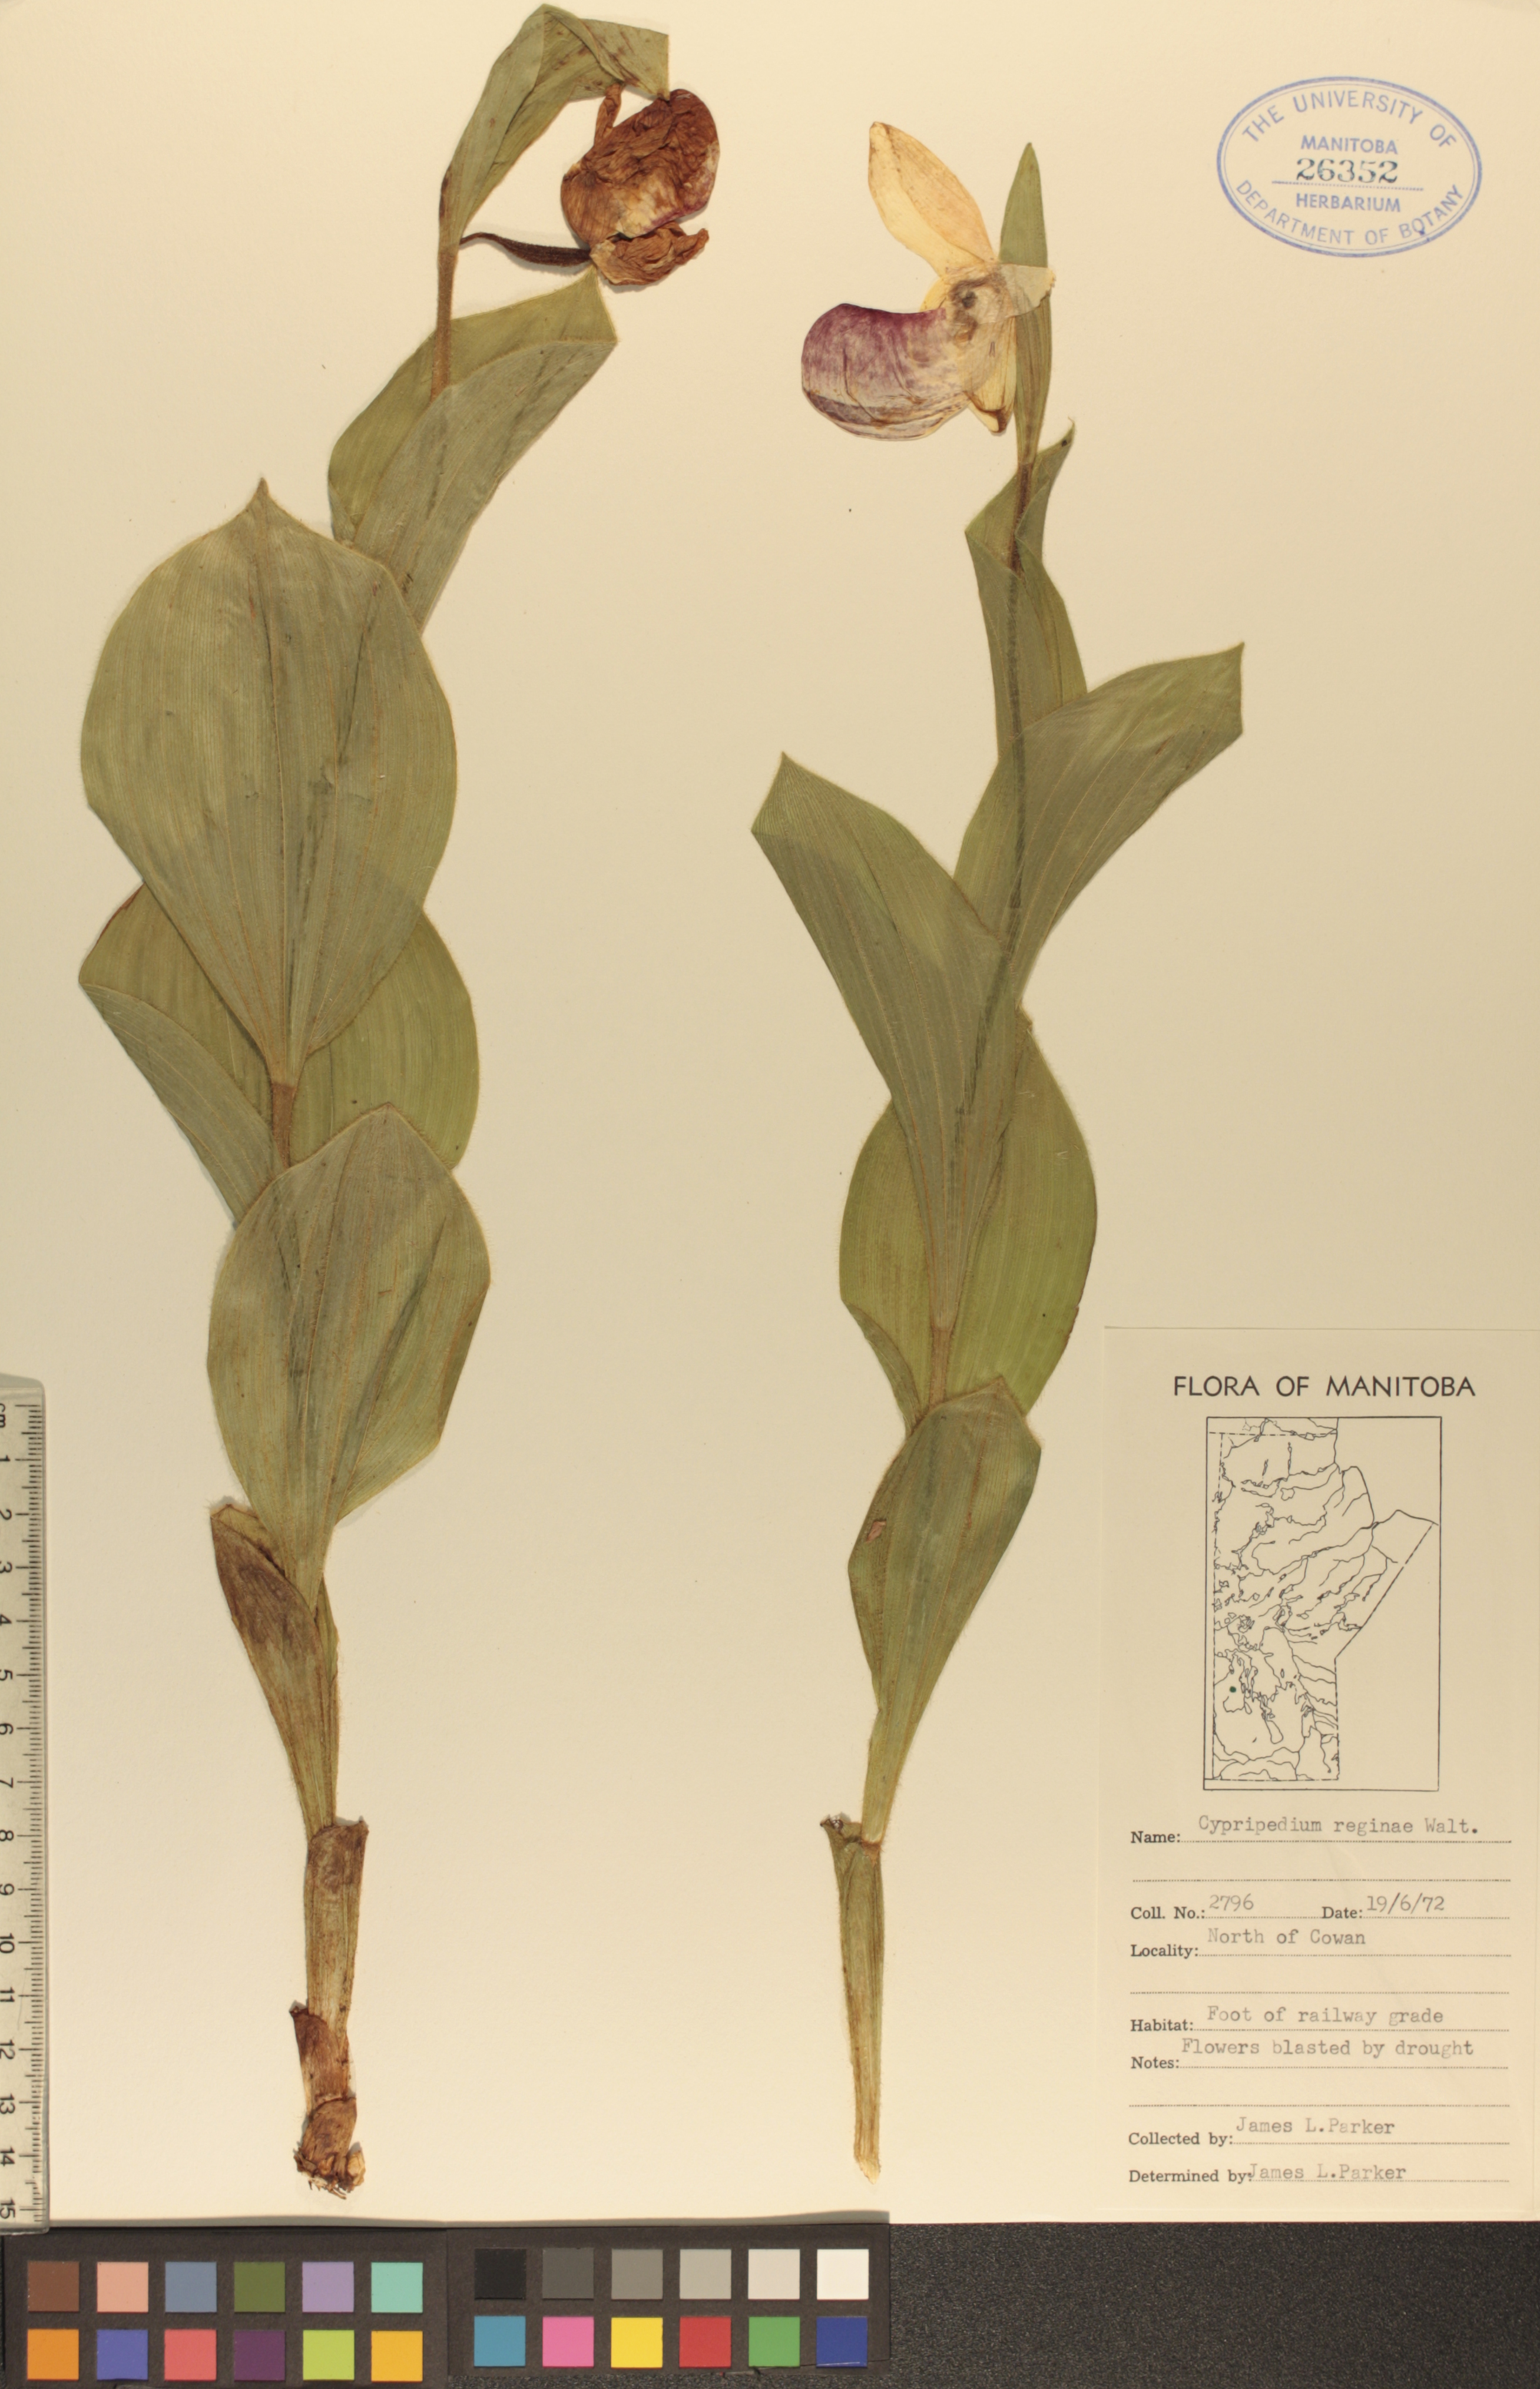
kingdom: Plantae
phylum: Tracheophyta
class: Liliopsida
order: Asparagales
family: Orchidaceae
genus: Cypripedium
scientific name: Cypripedium reginae
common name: Queen lady's-slipper
